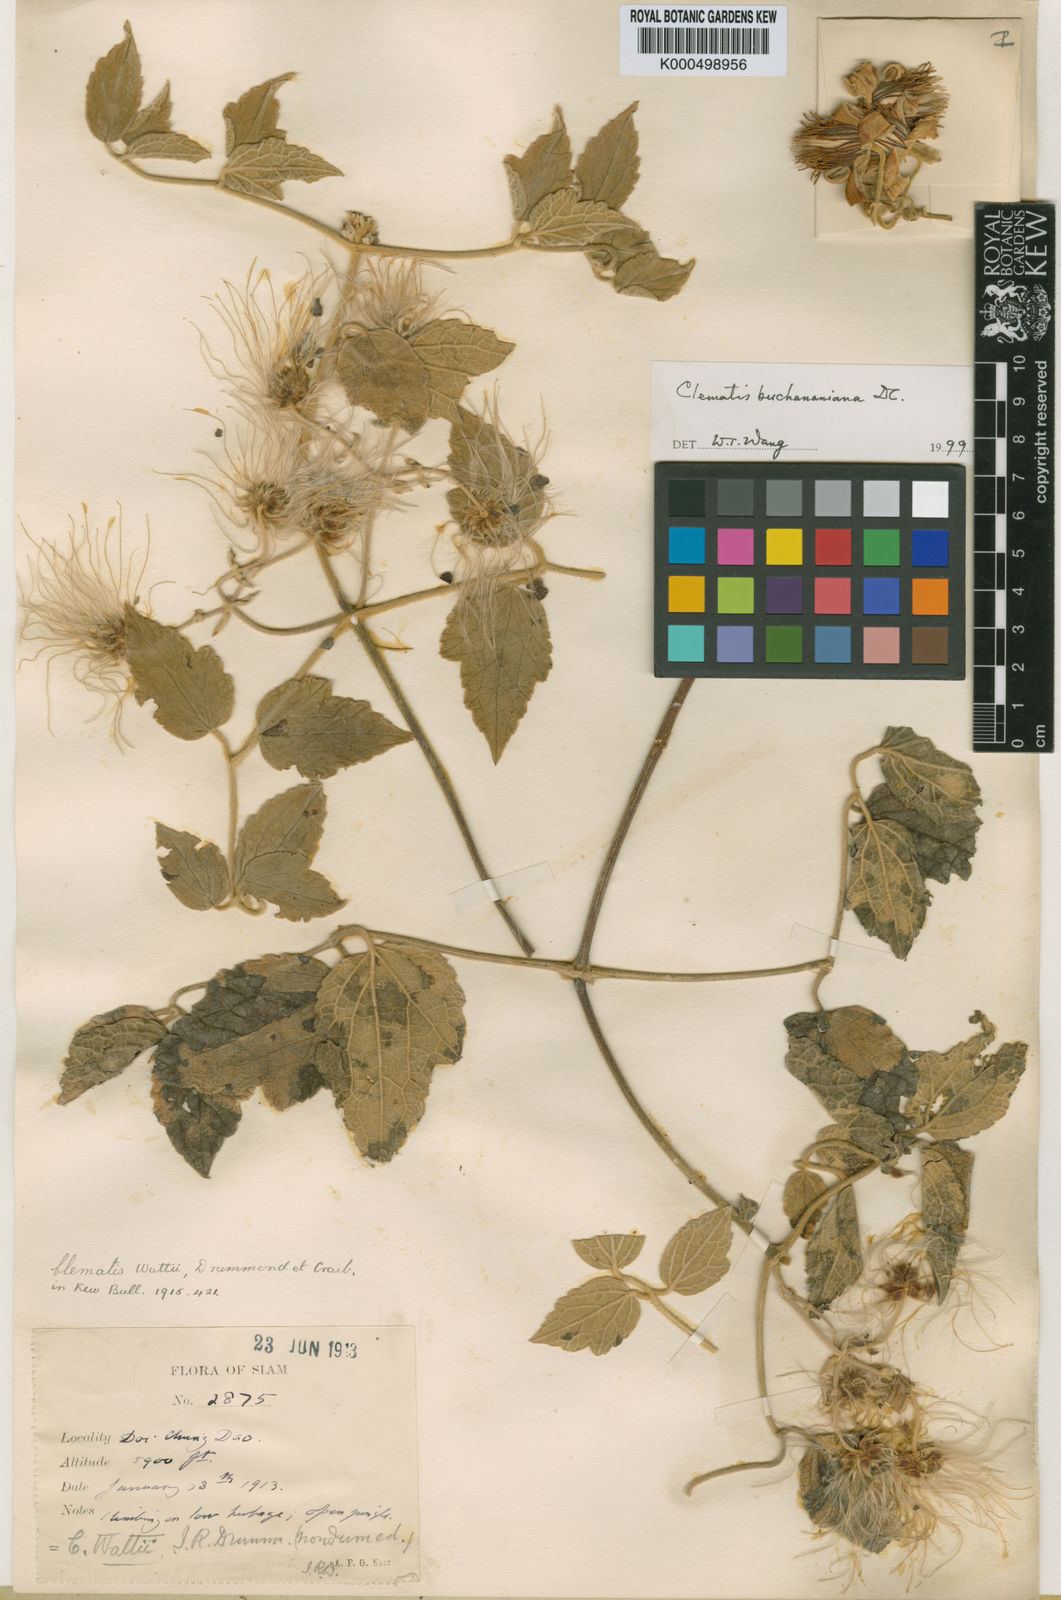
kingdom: Plantae
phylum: Tracheophyta
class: Magnoliopsida
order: Ranunculales
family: Ranunculaceae
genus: Clematis
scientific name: Clematis
